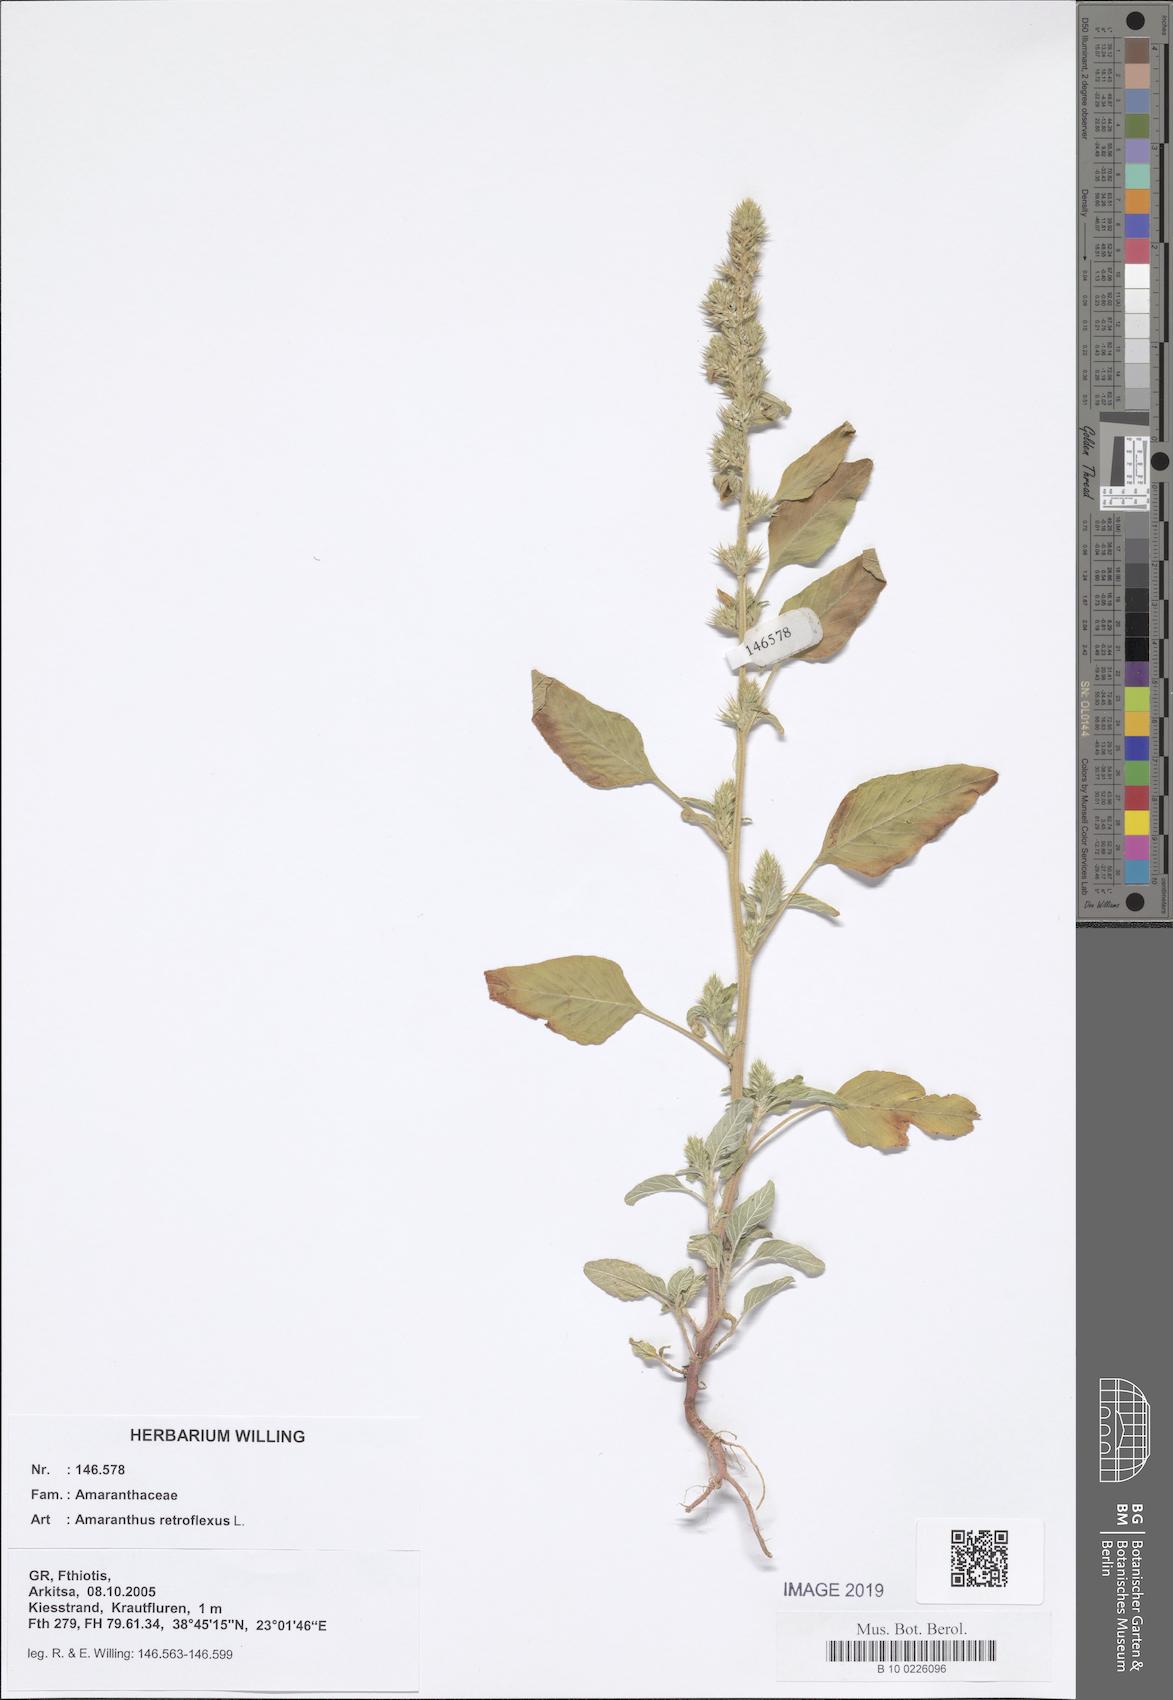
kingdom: Plantae
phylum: Tracheophyta
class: Magnoliopsida
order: Caryophyllales
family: Amaranthaceae
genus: Amaranthus
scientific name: Amaranthus retroflexus
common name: Redroot amaranth
